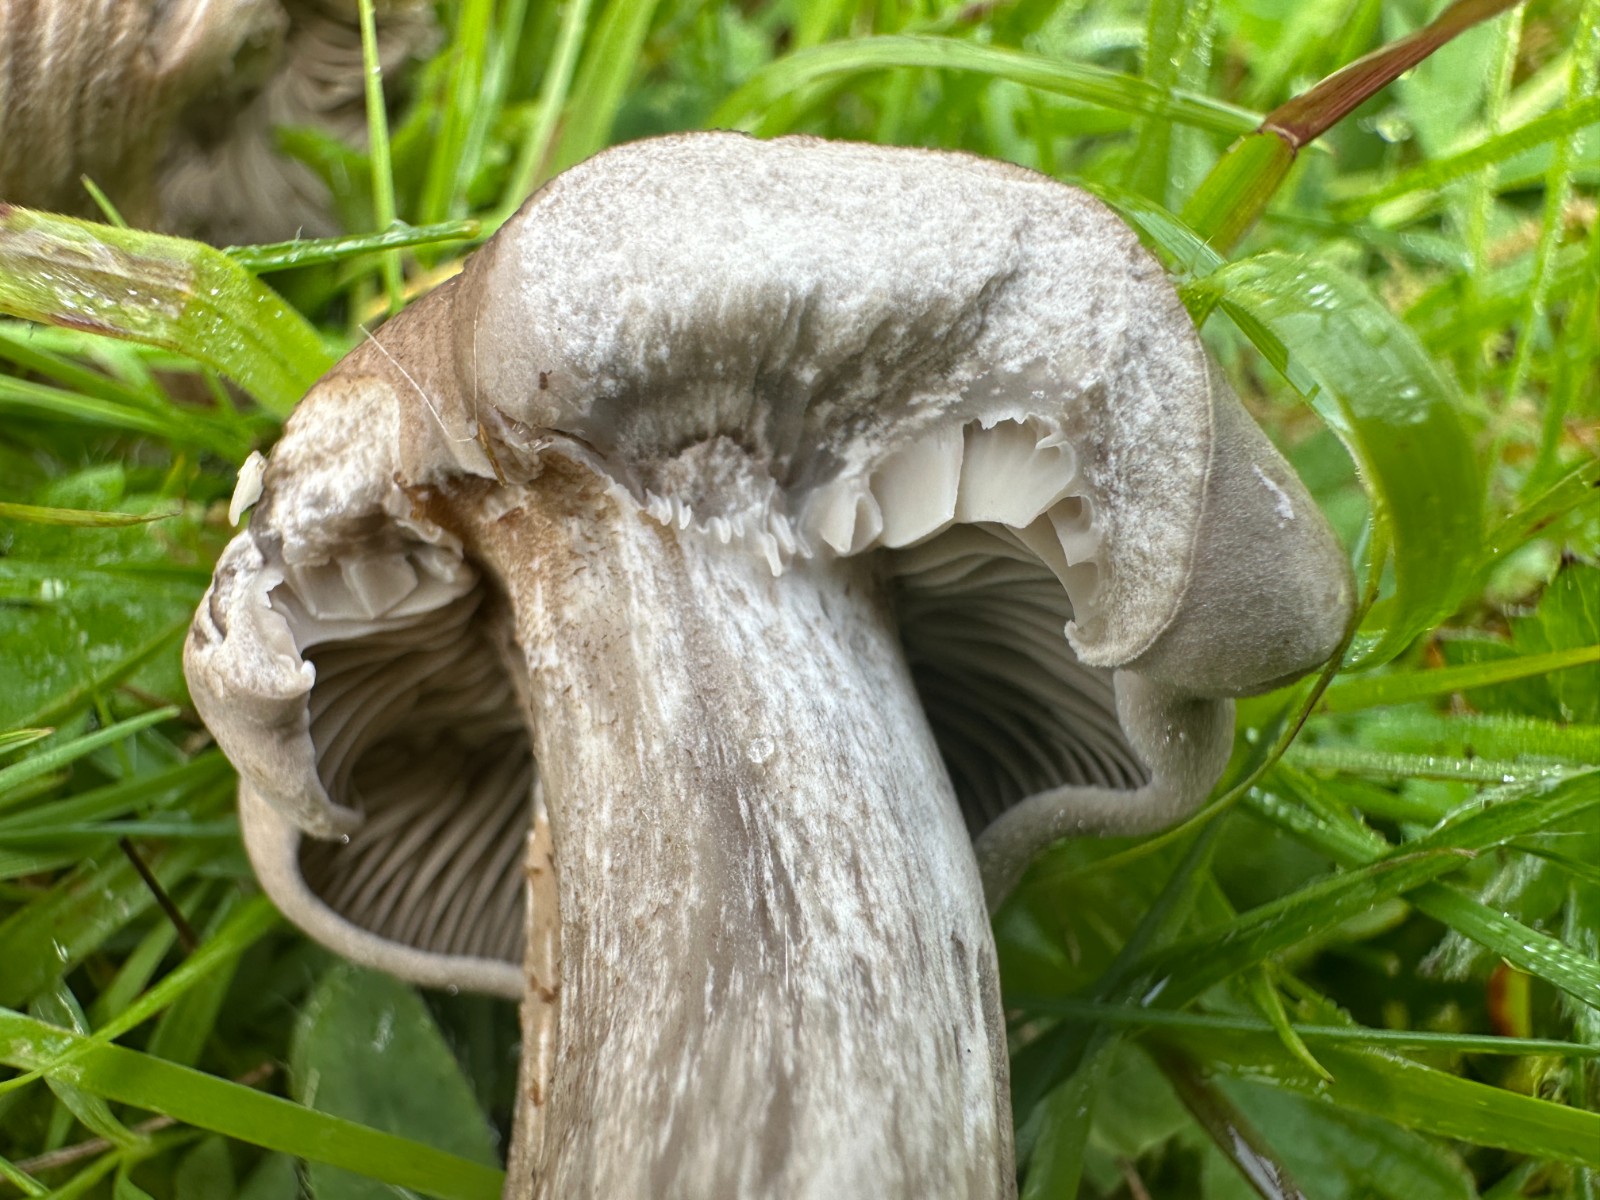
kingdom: Fungi
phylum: Basidiomycota
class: Agaricomycetes
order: Agaricales
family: Tricholomataceae
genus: Pseudotricholoma
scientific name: Pseudotricholoma metapodium
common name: rødmende alfehat
